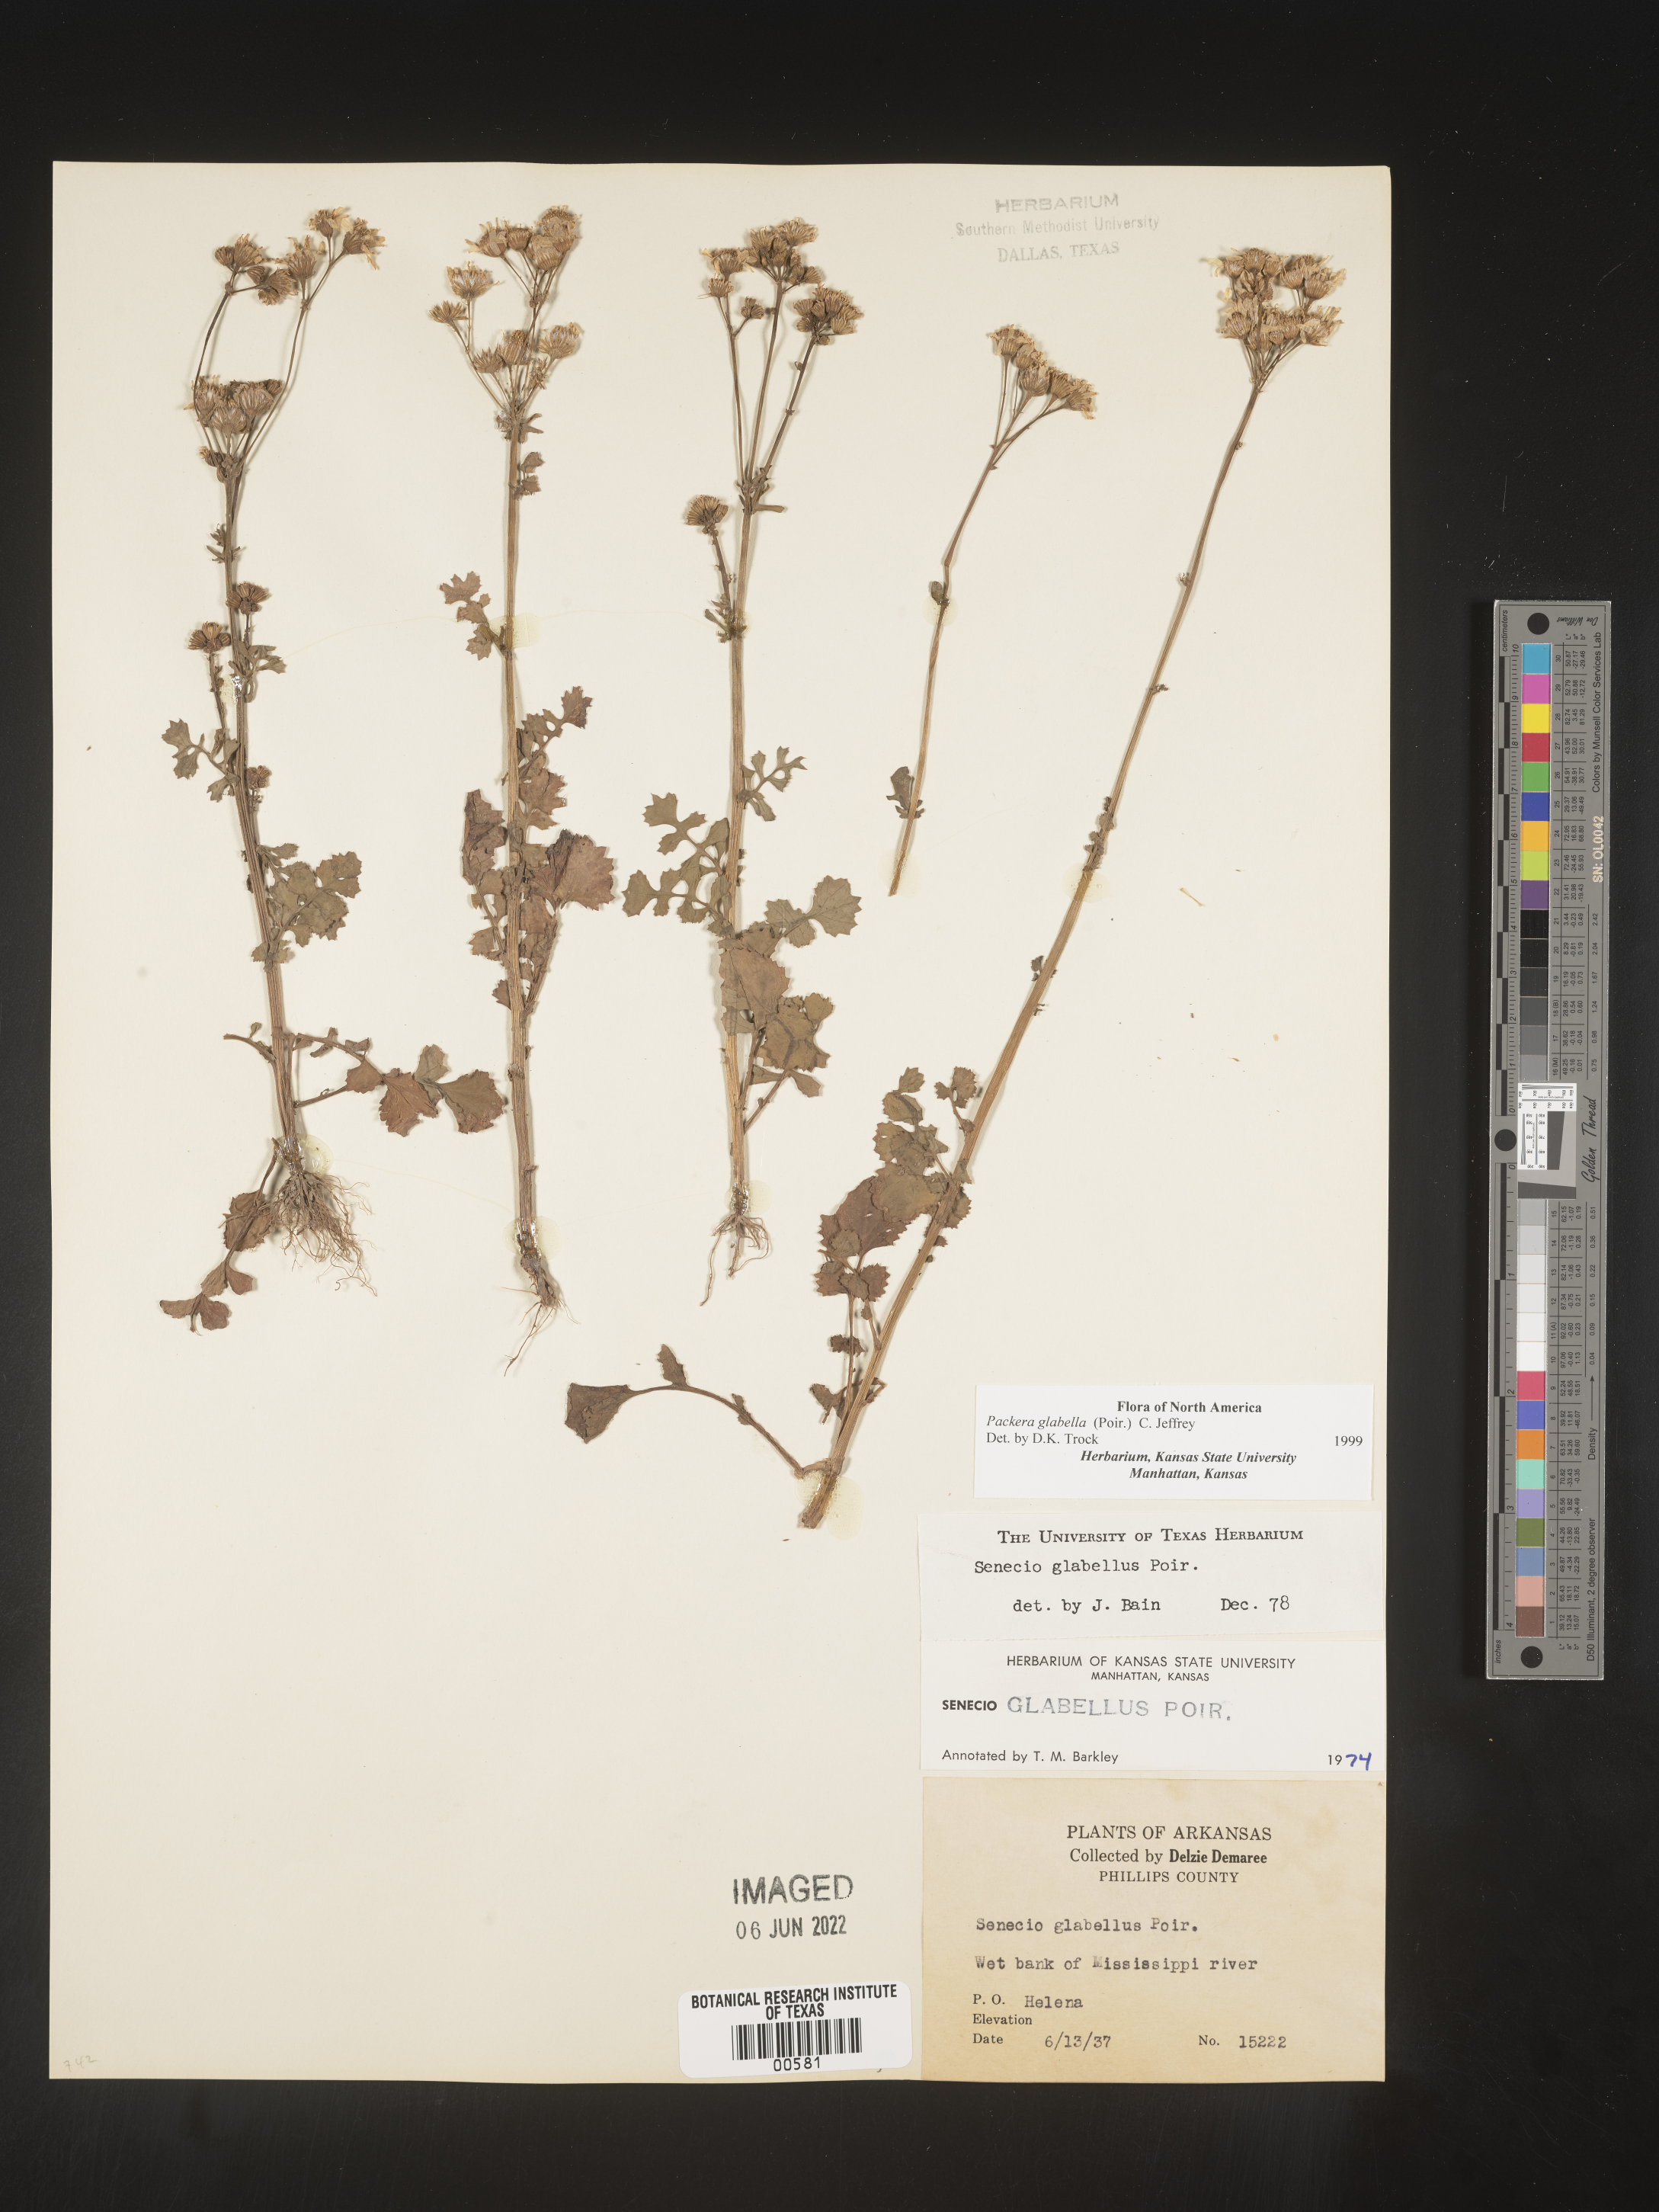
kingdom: Plantae
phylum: Tracheophyta
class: Magnoliopsida
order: Asterales
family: Asteraceae
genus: Packera
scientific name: Packera glabella
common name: Butterweed
